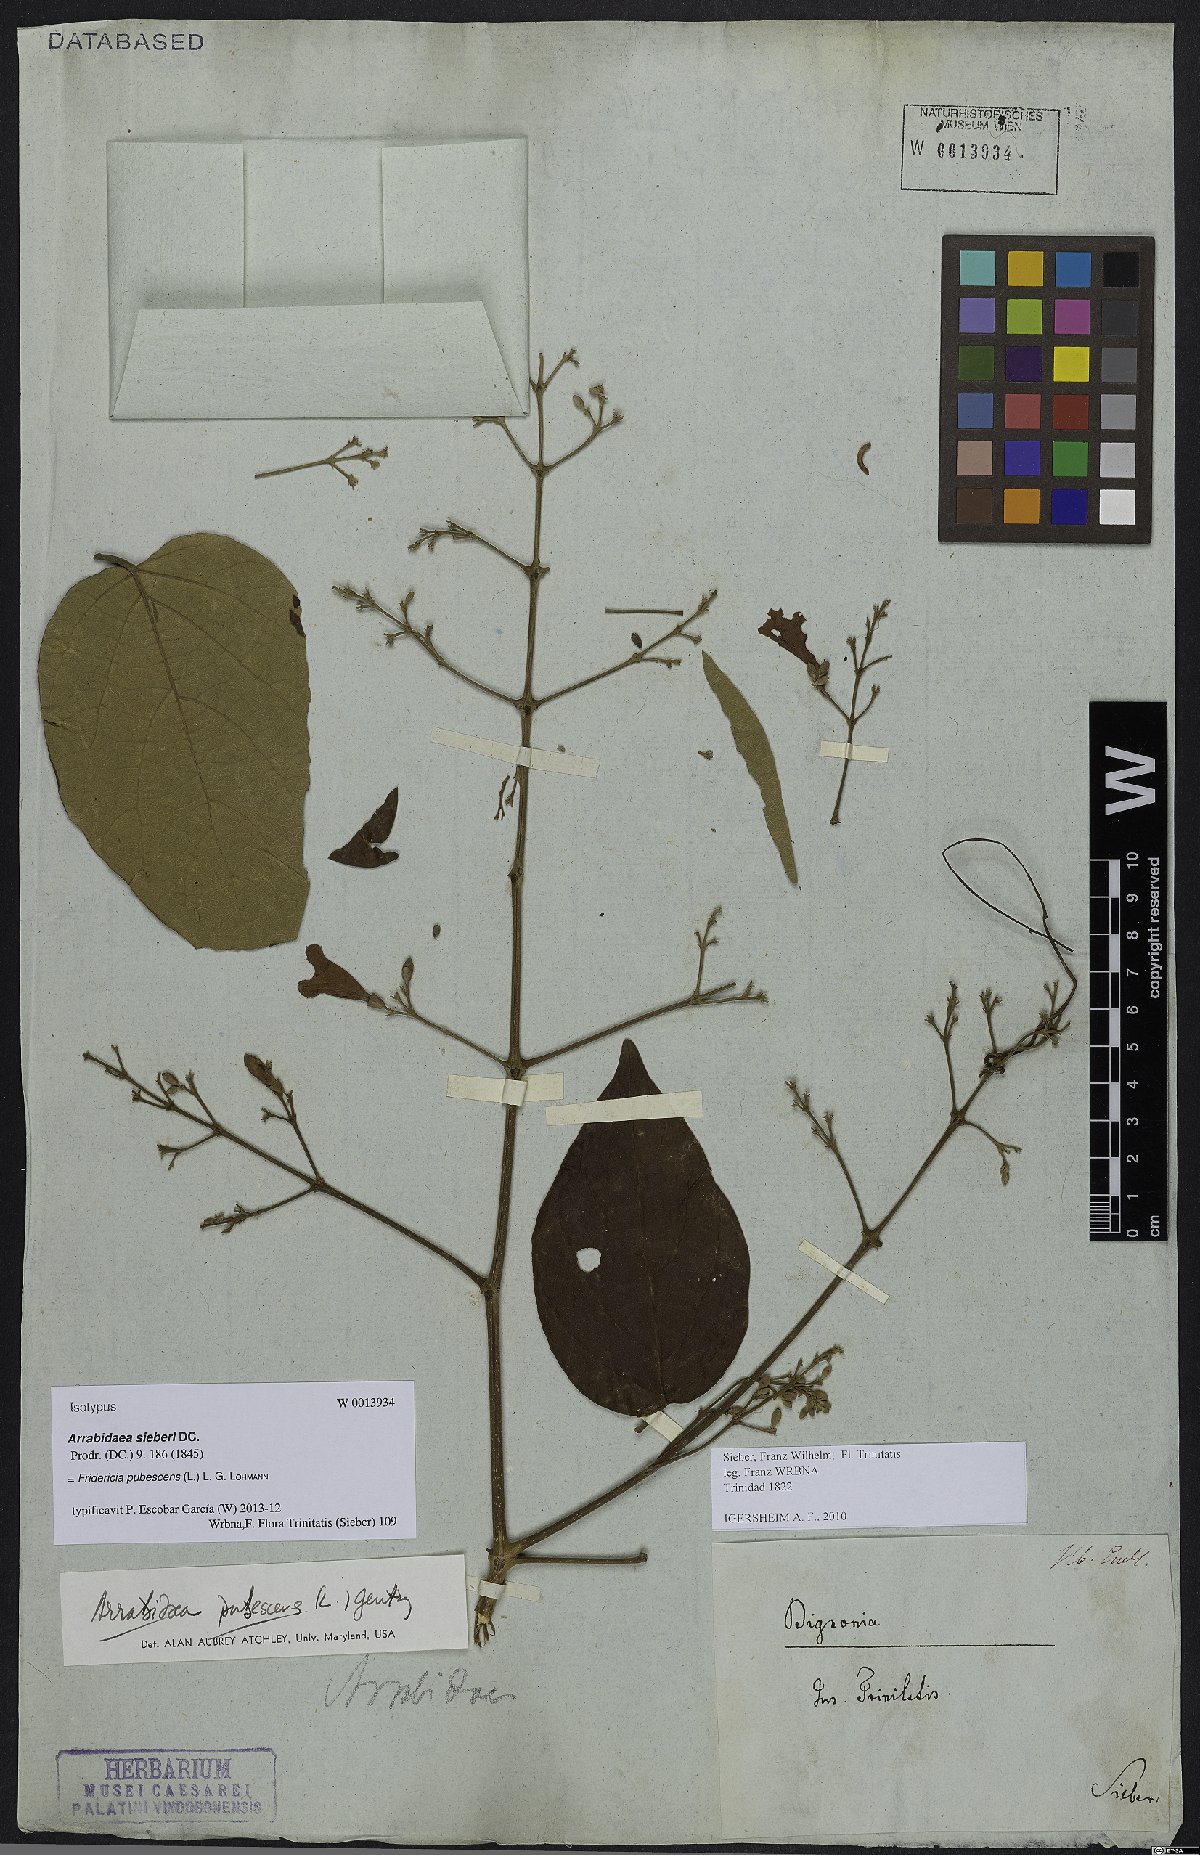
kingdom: Plantae
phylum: Tracheophyta
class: Magnoliopsida
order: Lamiales
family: Bignoniaceae
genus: Fridericia
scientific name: Fridericia pubescens
